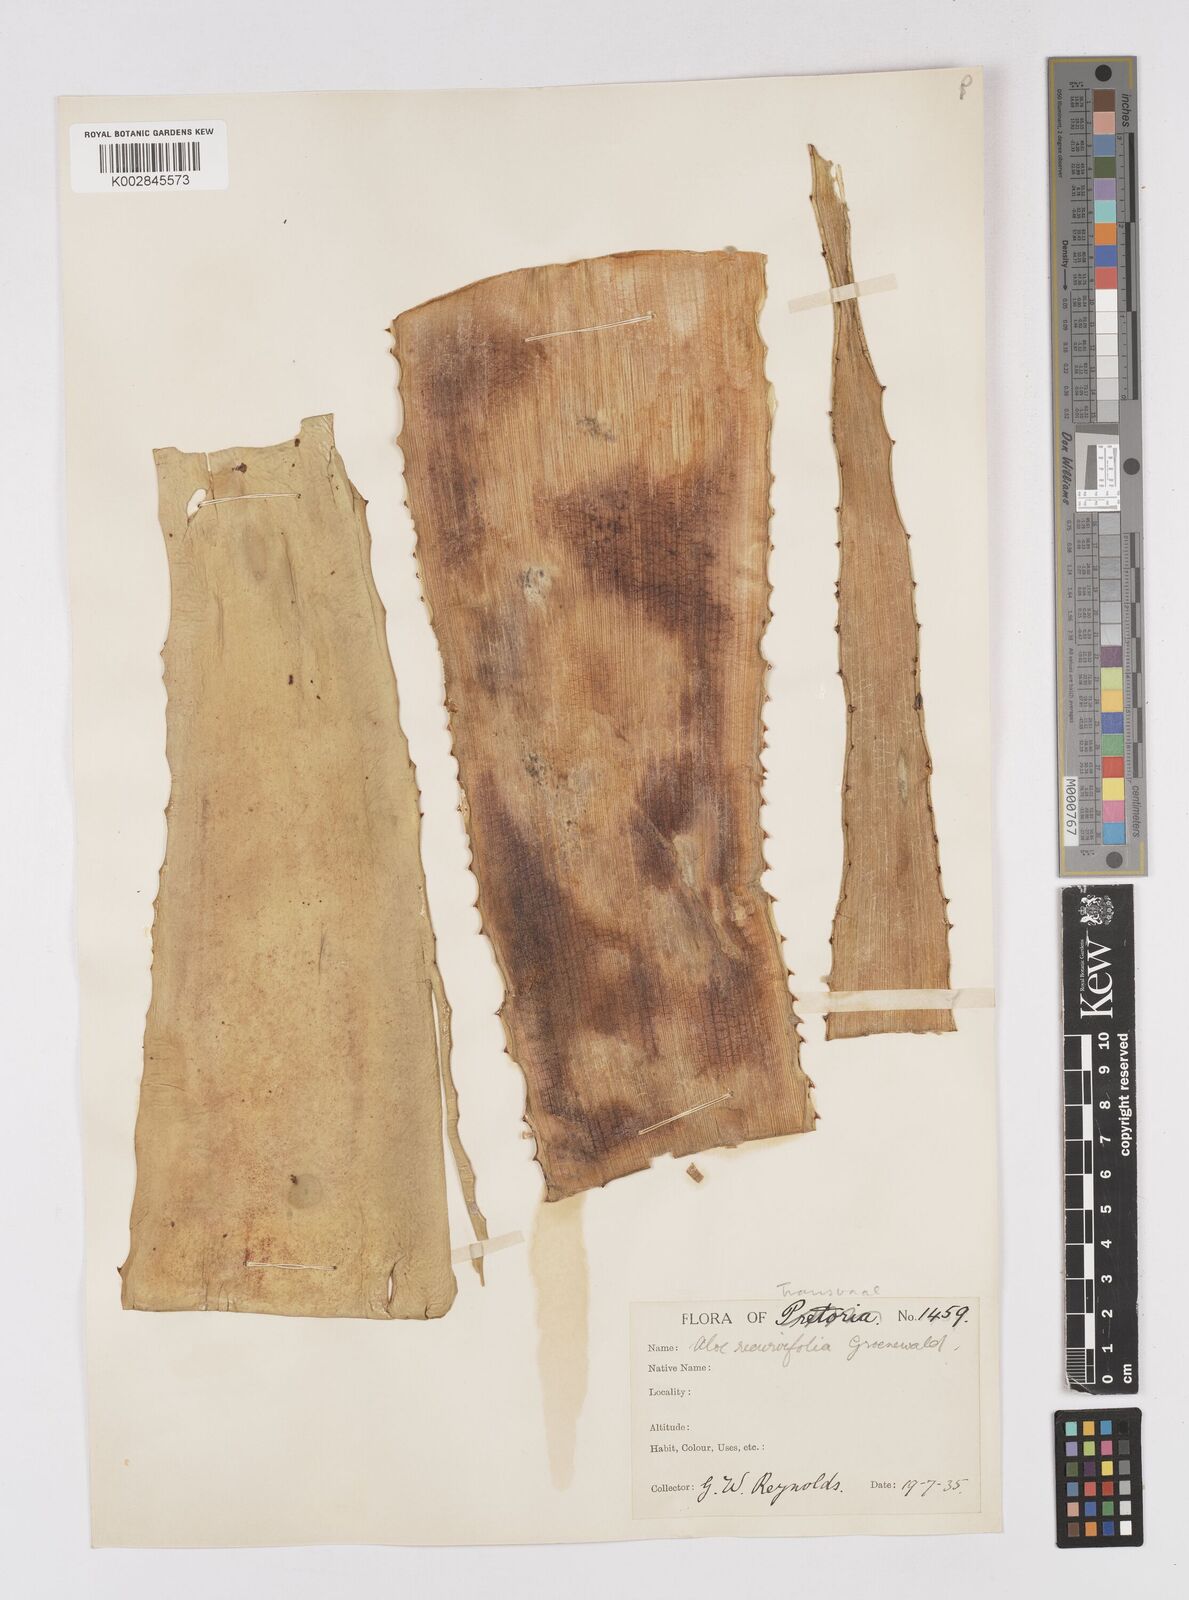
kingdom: Plantae
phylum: Tracheophyta
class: Liliopsida
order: Asparagales
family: Asphodelaceae
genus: Aloe
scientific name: Aloe alooides
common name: Graskop aloe
